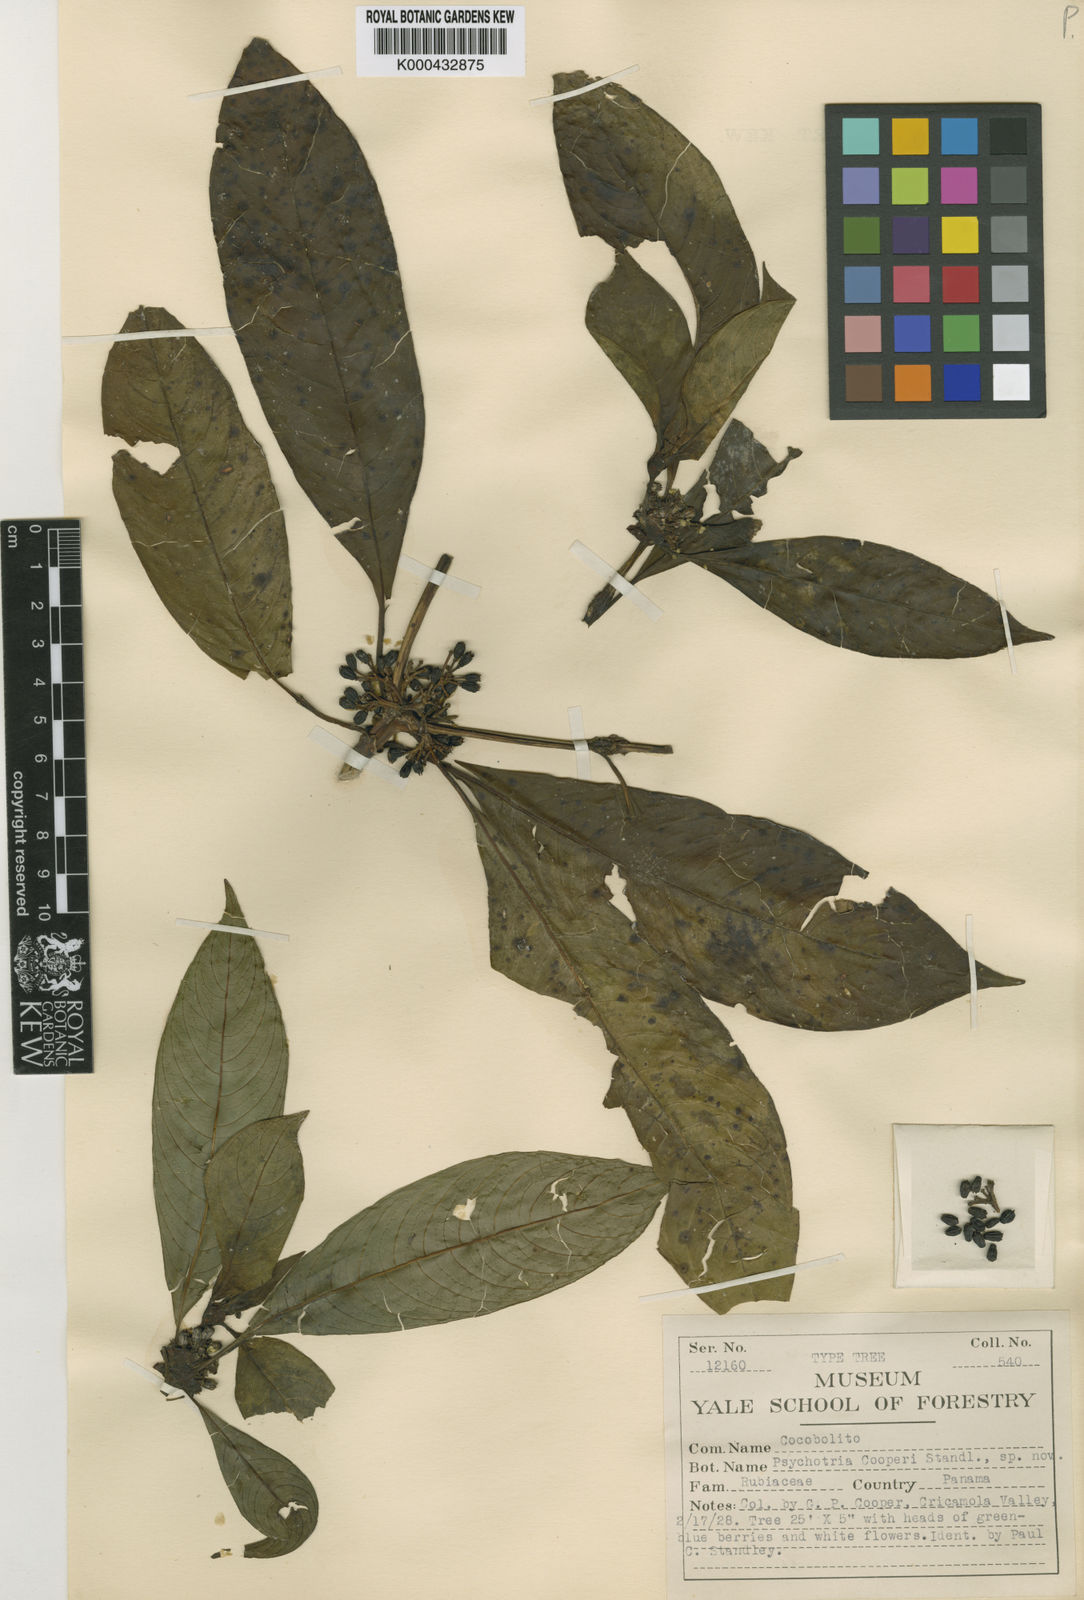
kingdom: Plantae
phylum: Tracheophyta
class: Magnoliopsida
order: Gentianales
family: Rubiaceae
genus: Palicourea
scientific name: Palicourea pseudaxillaris
